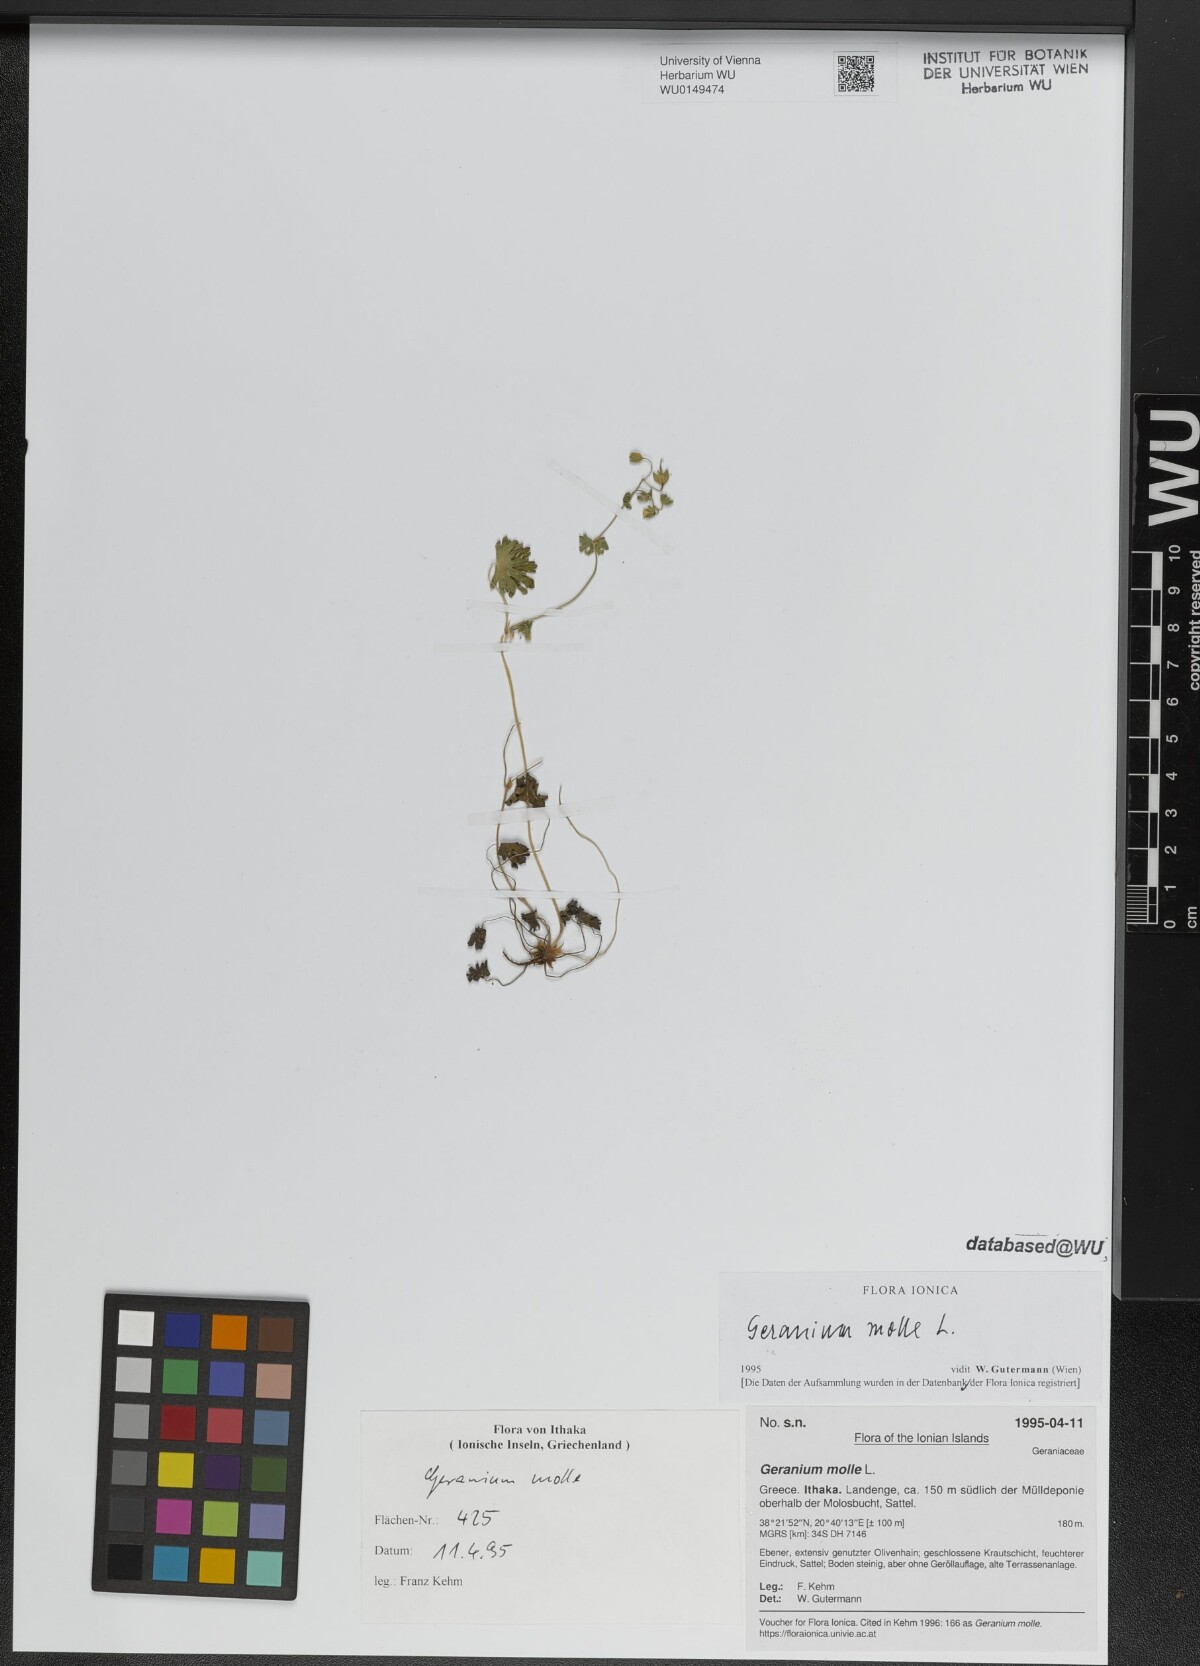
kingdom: Plantae
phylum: Tracheophyta
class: Magnoliopsida
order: Geraniales
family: Geraniaceae
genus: Geranium
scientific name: Geranium molle
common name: Dove's-foot crane's-bill
